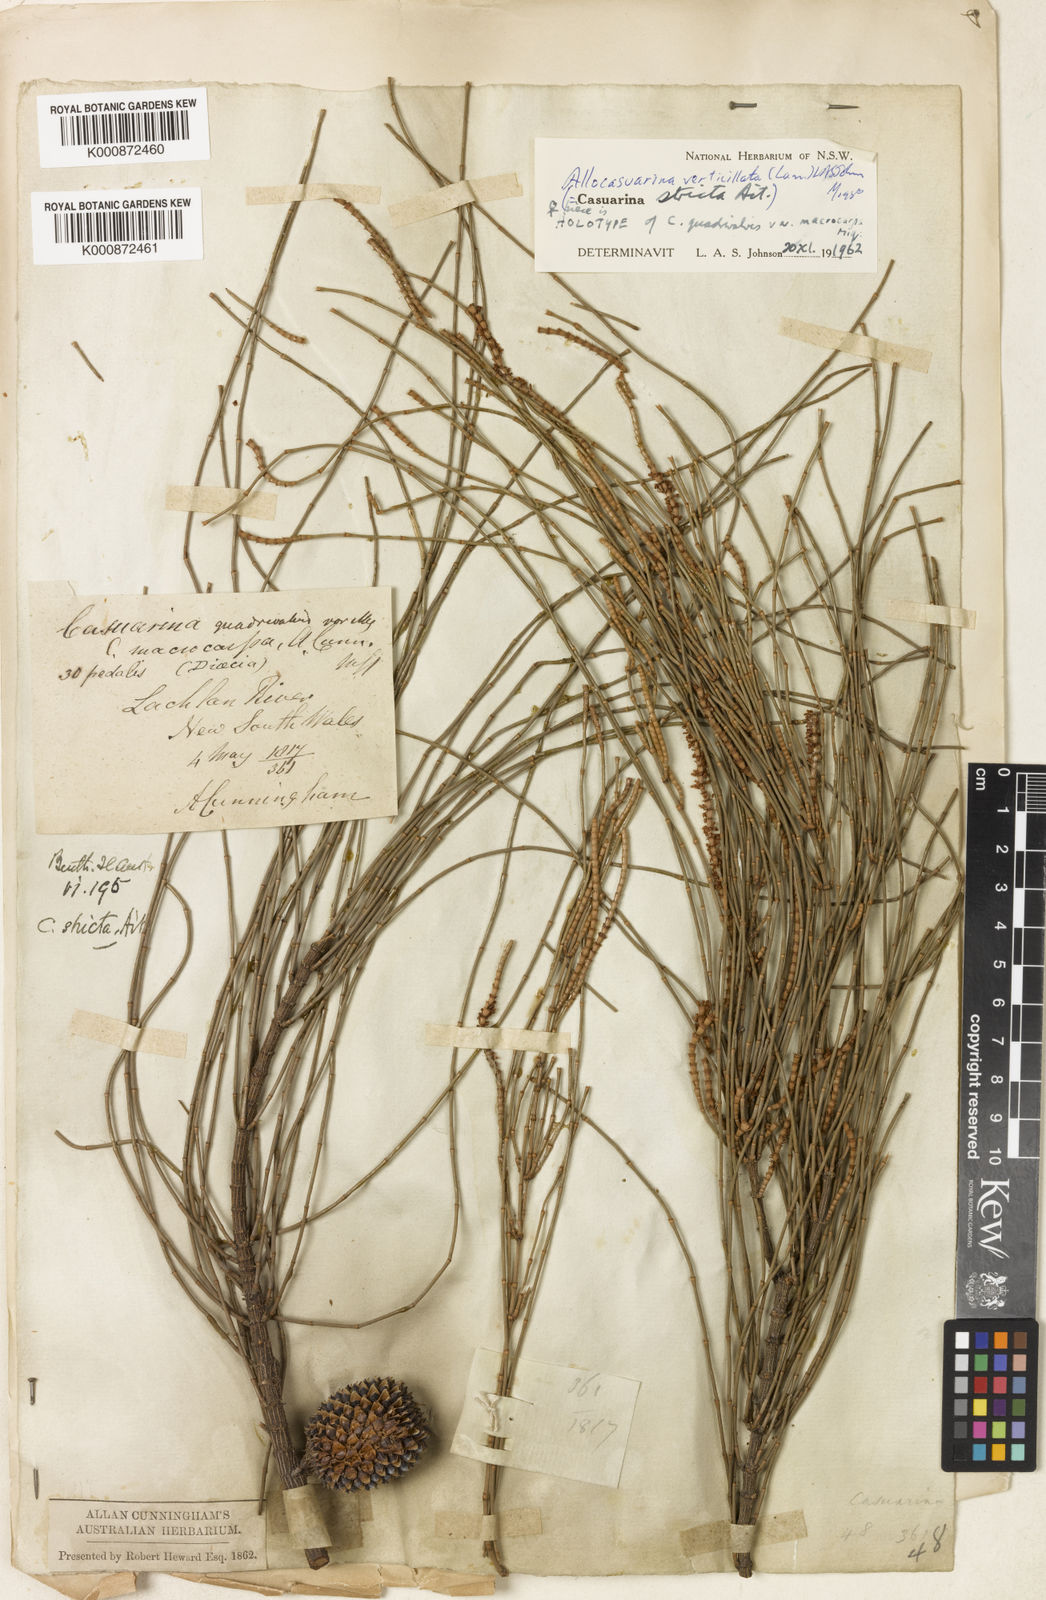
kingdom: Plantae
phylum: Tracheophyta
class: Magnoliopsida
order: Fagales
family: Casuarinaceae
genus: Allocasuarina
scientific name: Allocasuarina verticillata
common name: Drooping she-oak
